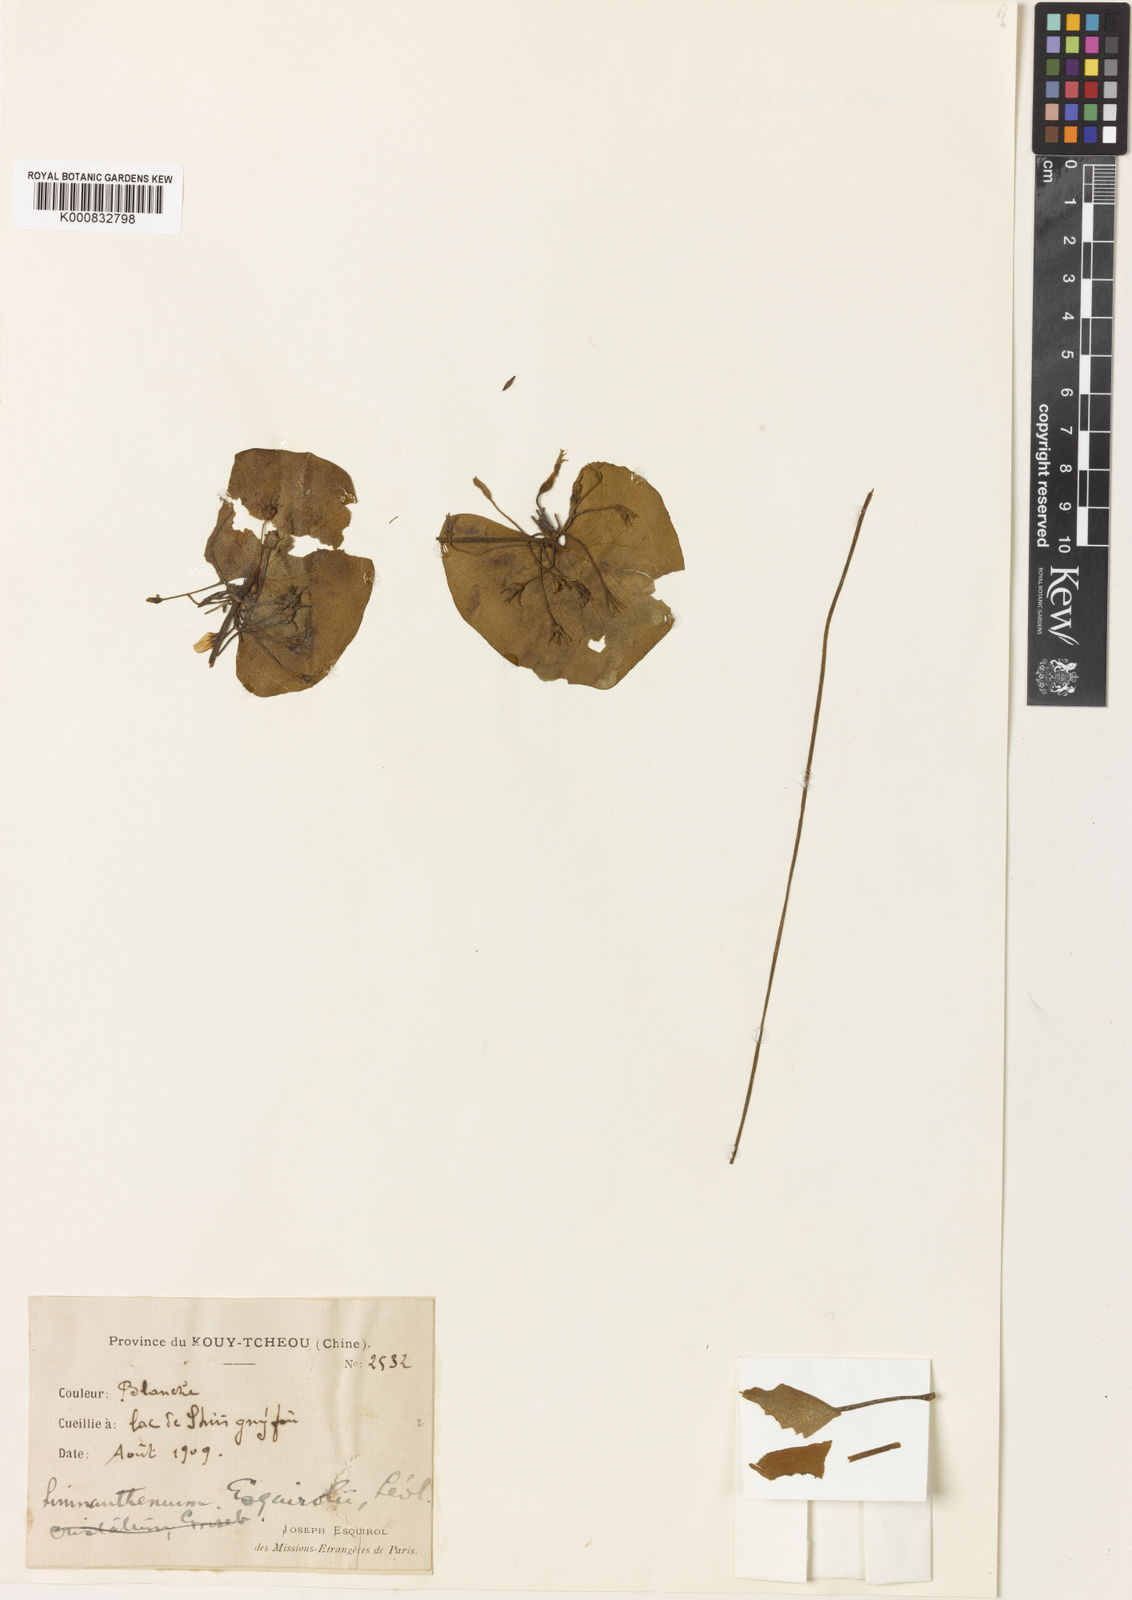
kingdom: Plantae
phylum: Tracheophyta
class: Magnoliopsida
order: Asterales
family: Menyanthaceae
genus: Nymphoides
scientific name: Nymphoides indica
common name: Water-snowflake
